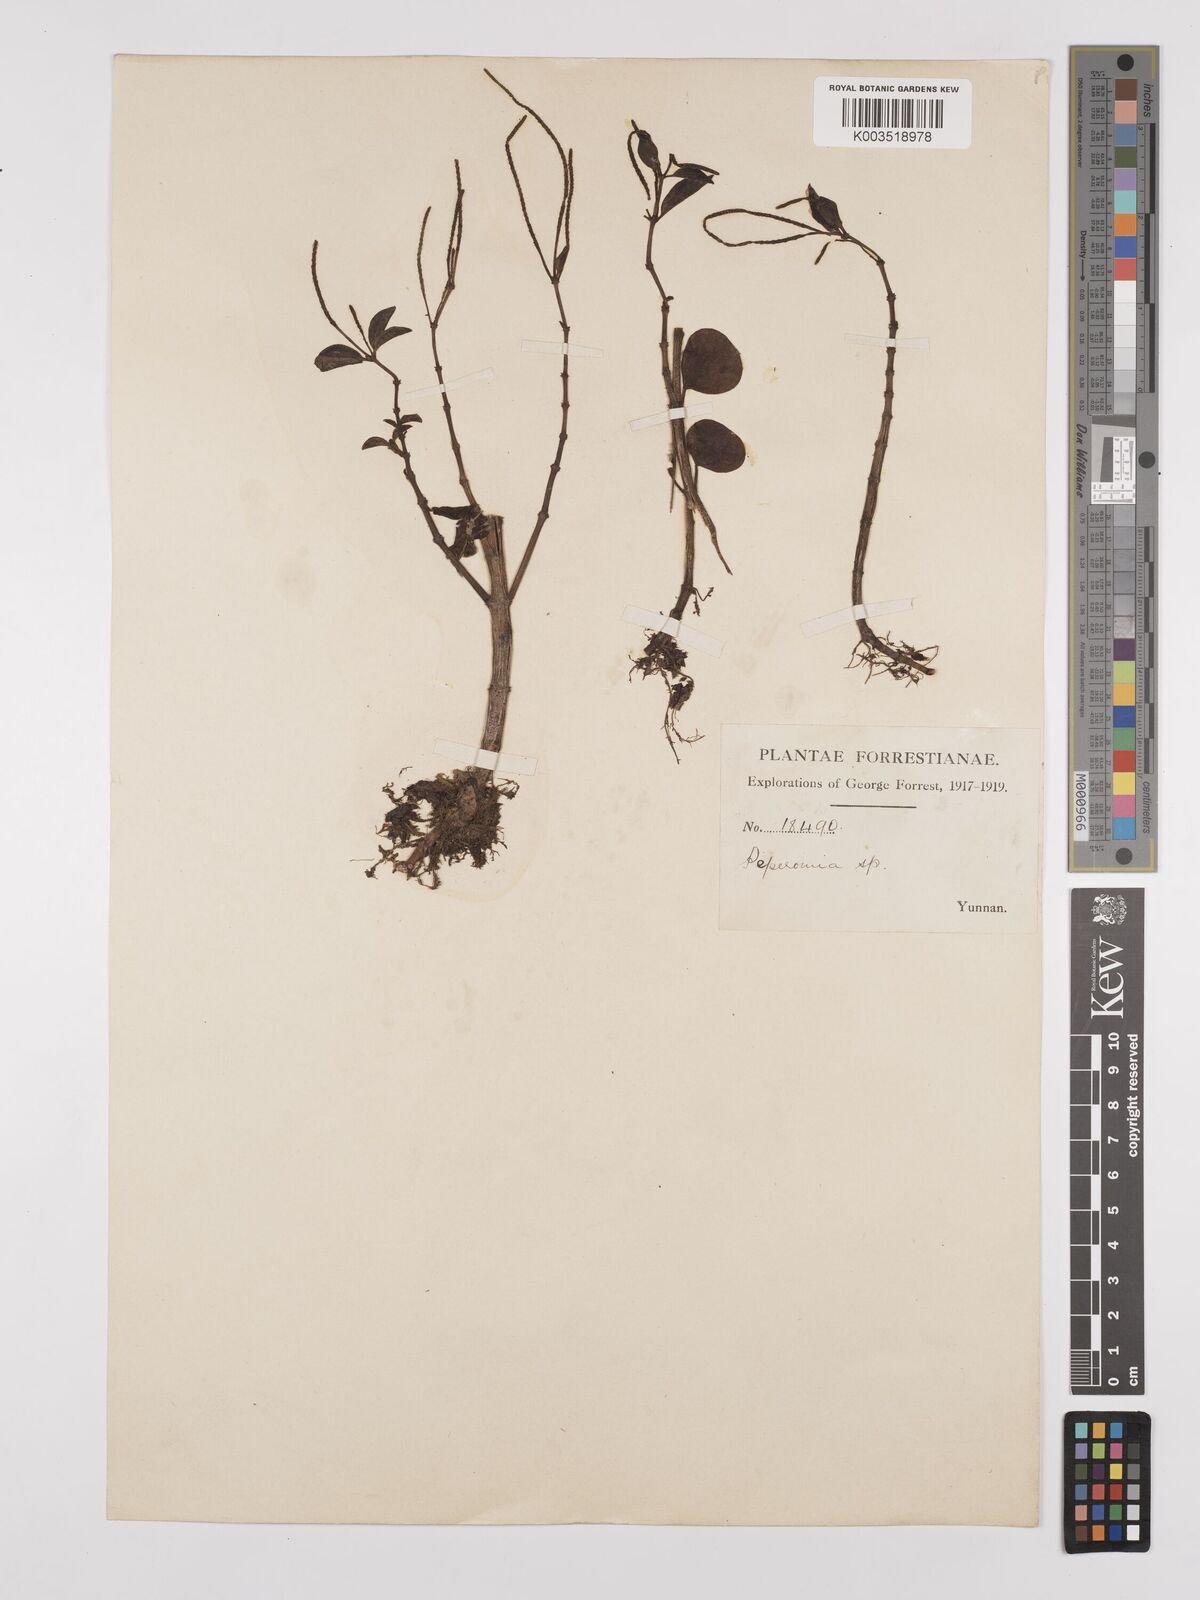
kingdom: Plantae
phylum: Tracheophyta
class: Magnoliopsida
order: Piperales
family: Piperaceae
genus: Peperomia
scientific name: Peperomia leptostachya
